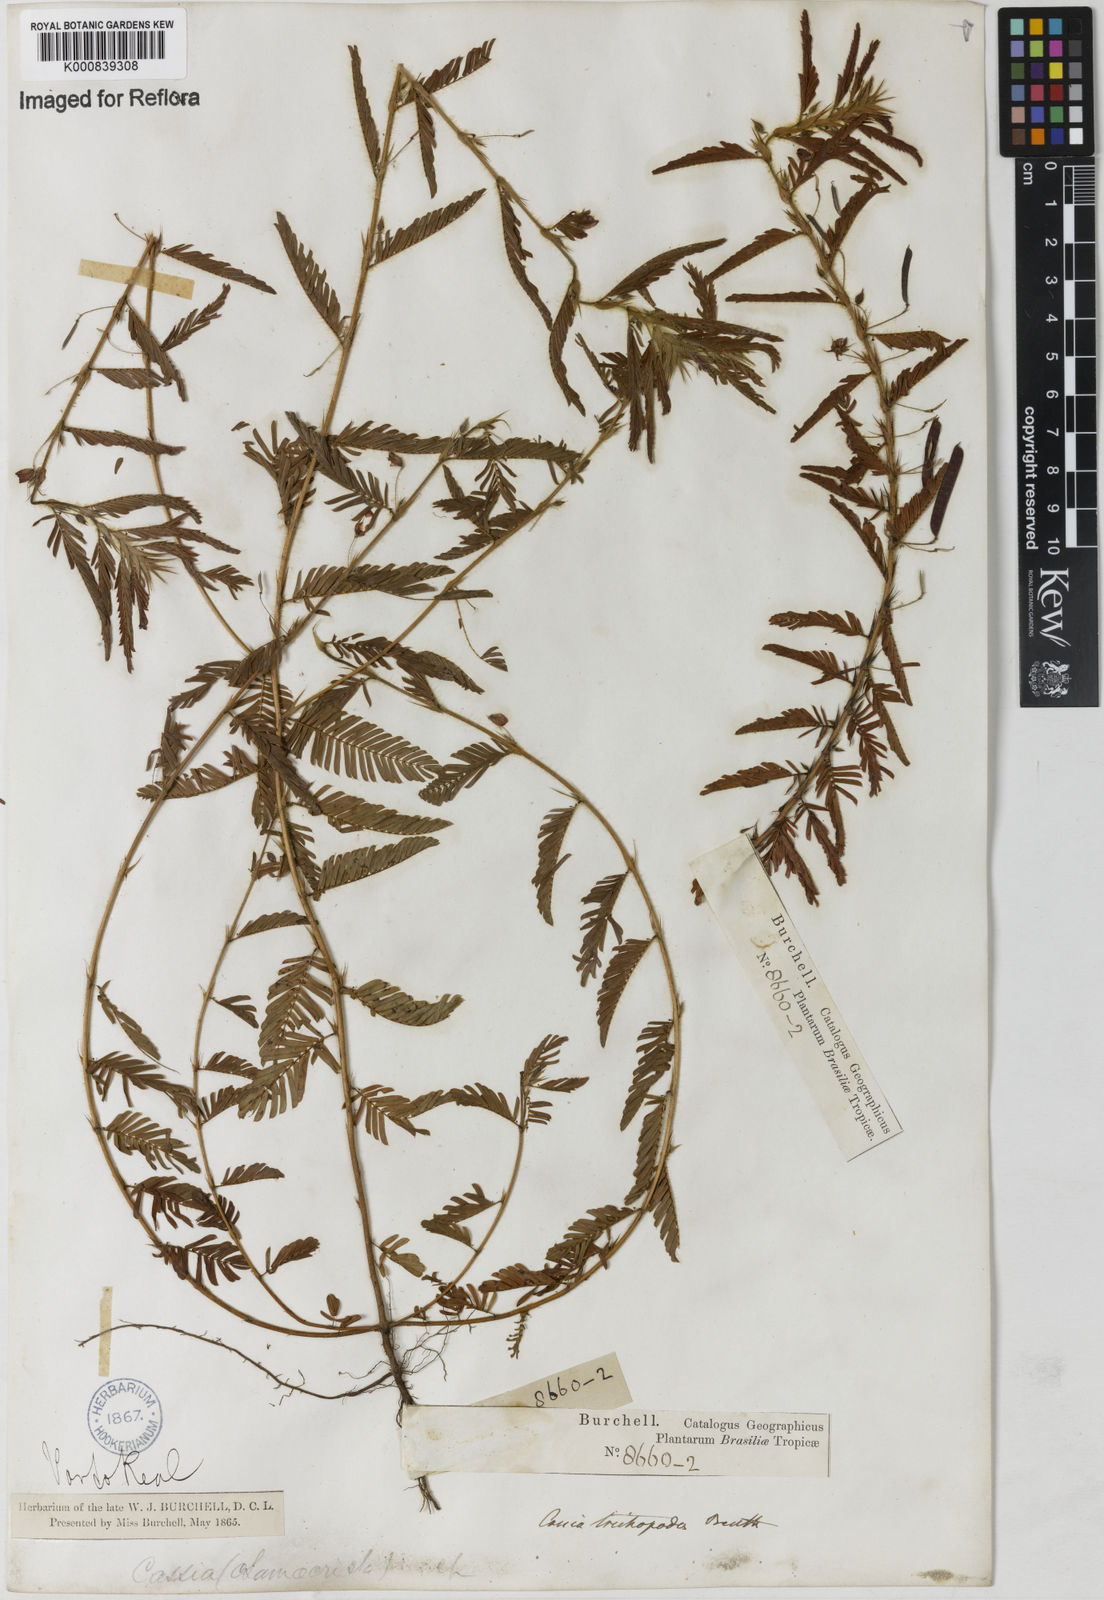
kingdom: Plantae
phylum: Tracheophyta
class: Magnoliopsida
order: Fabales
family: Fabaceae
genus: Chamaecrista
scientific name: Chamaecrista trichopoda
